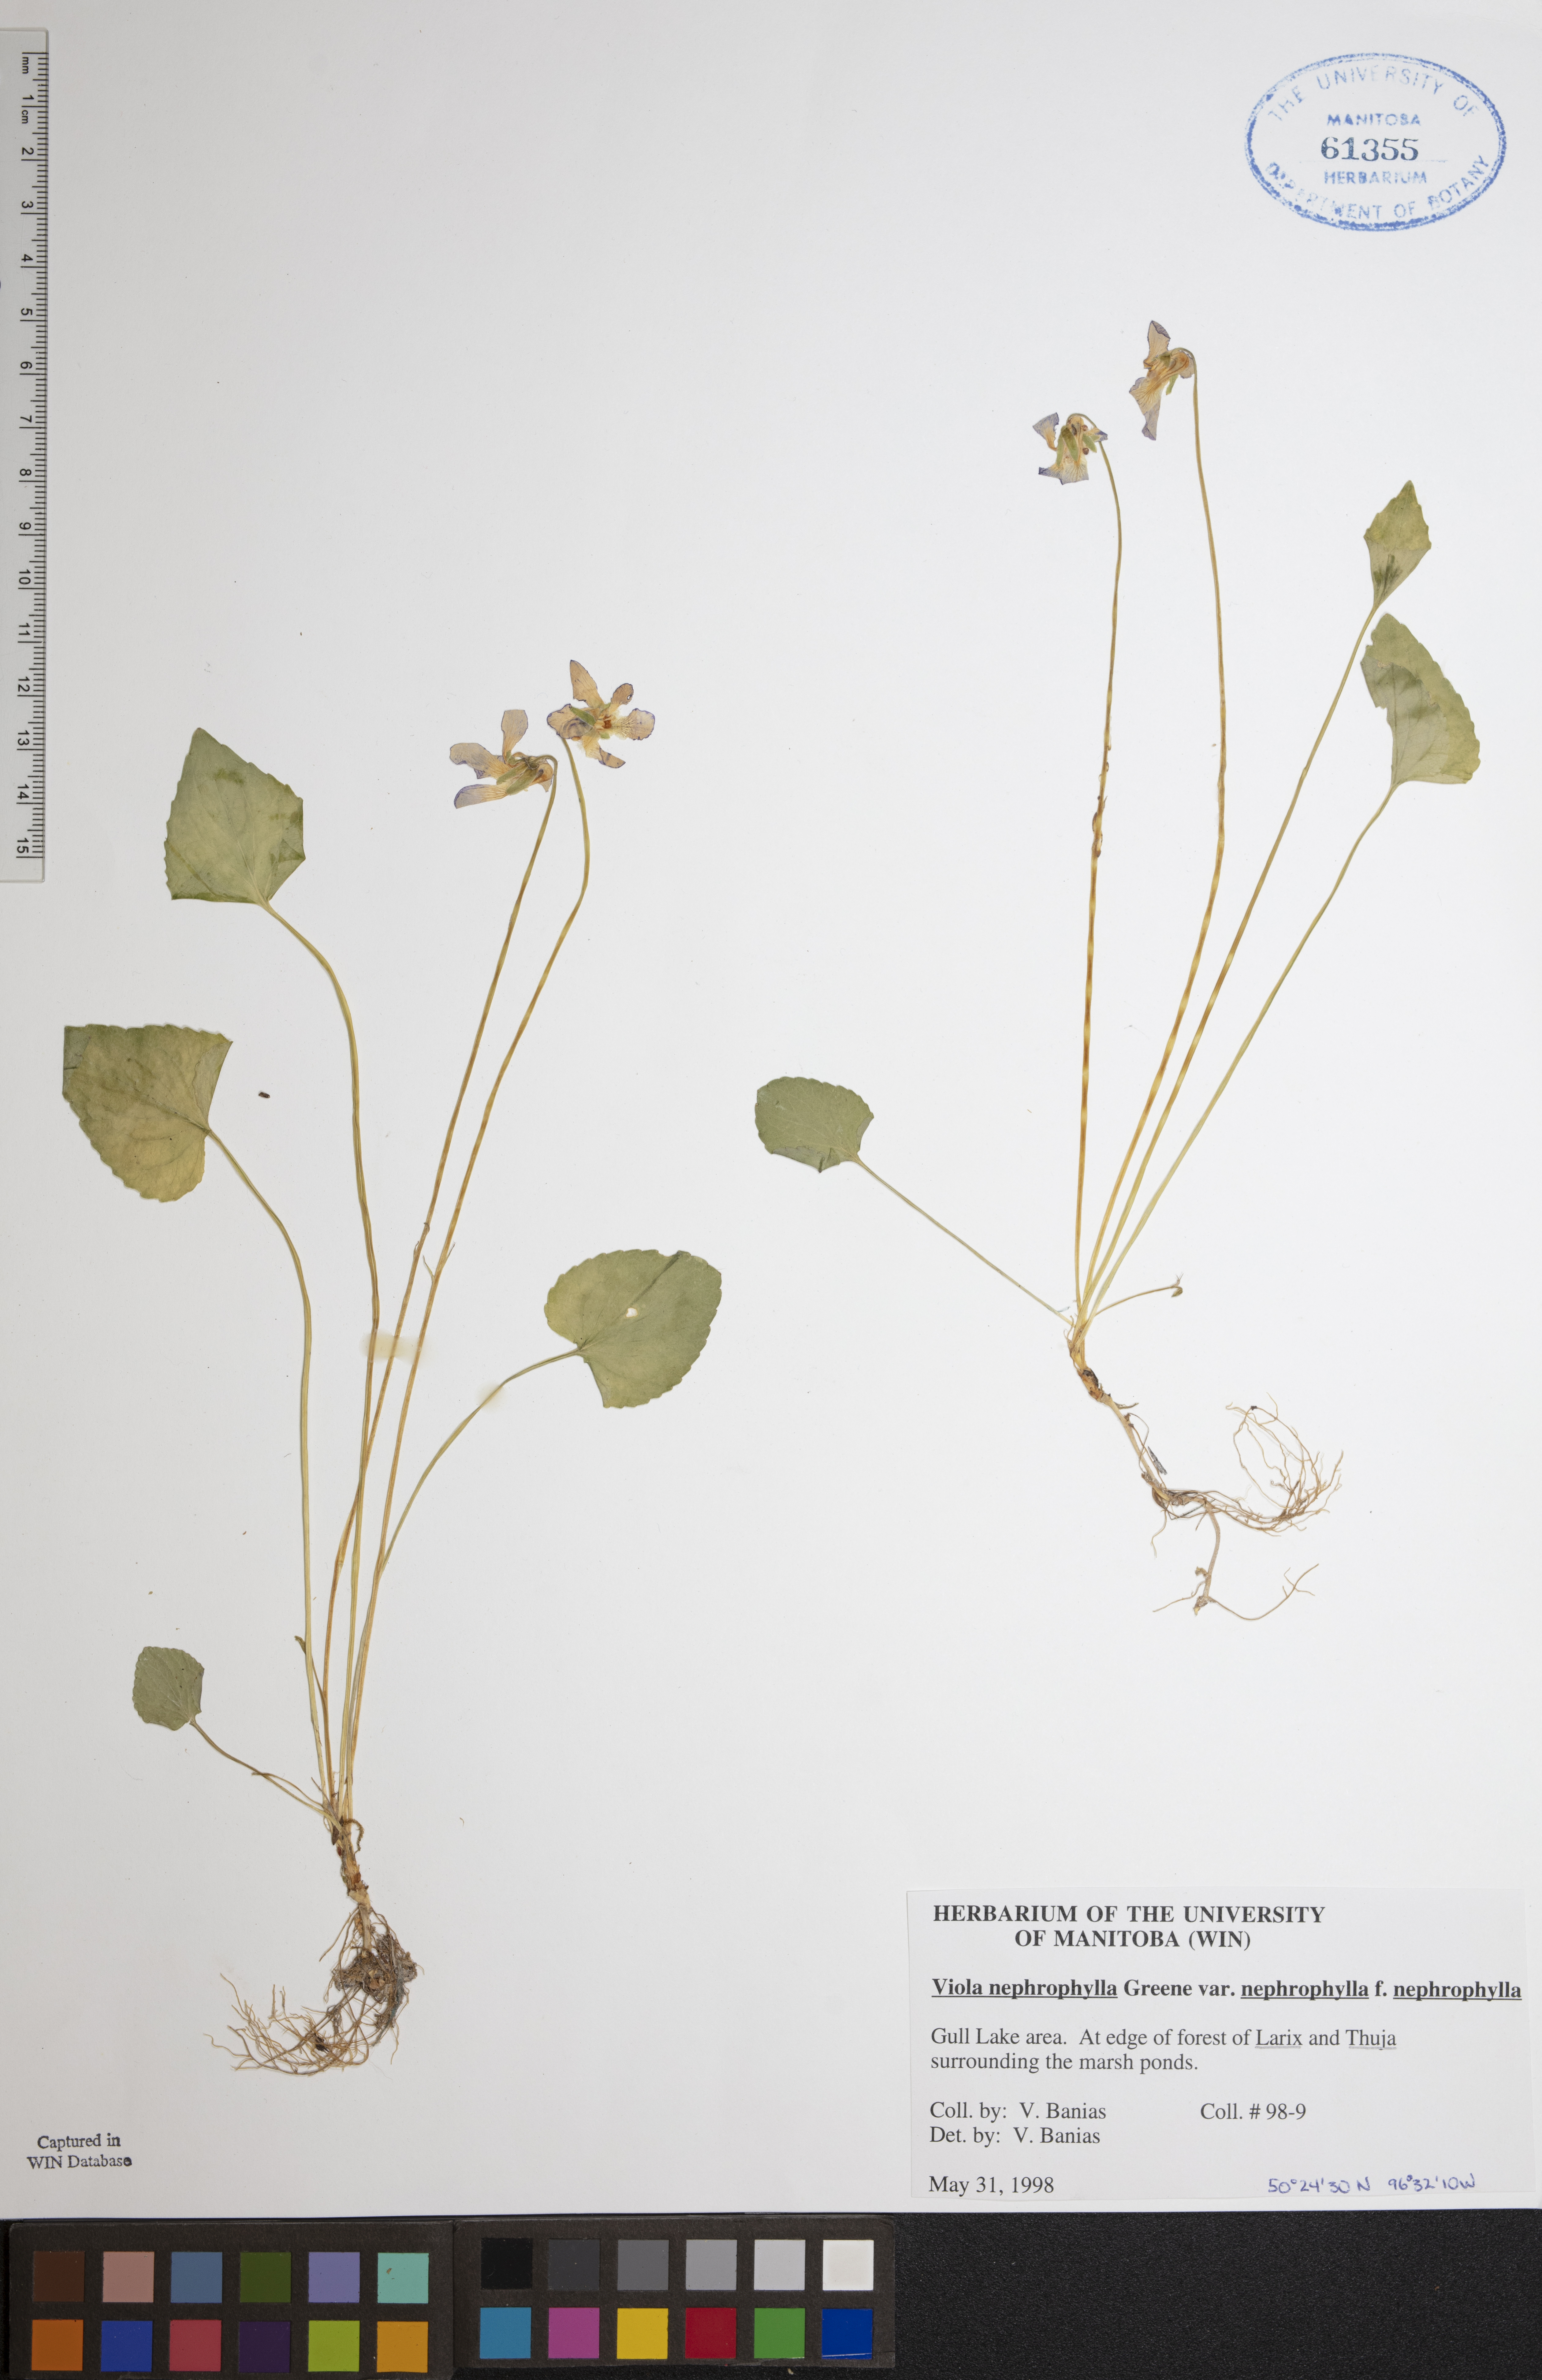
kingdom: Plantae
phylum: Tracheophyta
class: Magnoliopsida
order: Malpighiales
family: Violaceae
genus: Viola
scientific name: Viola nephrophylla
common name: Blue meadow violet
